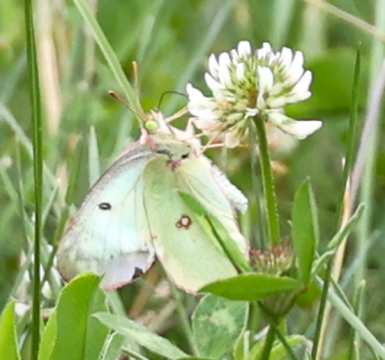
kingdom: Animalia
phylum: Arthropoda
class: Insecta
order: Lepidoptera
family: Pieridae
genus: Colias
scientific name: Colias philodice
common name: Clouded Sulphur
